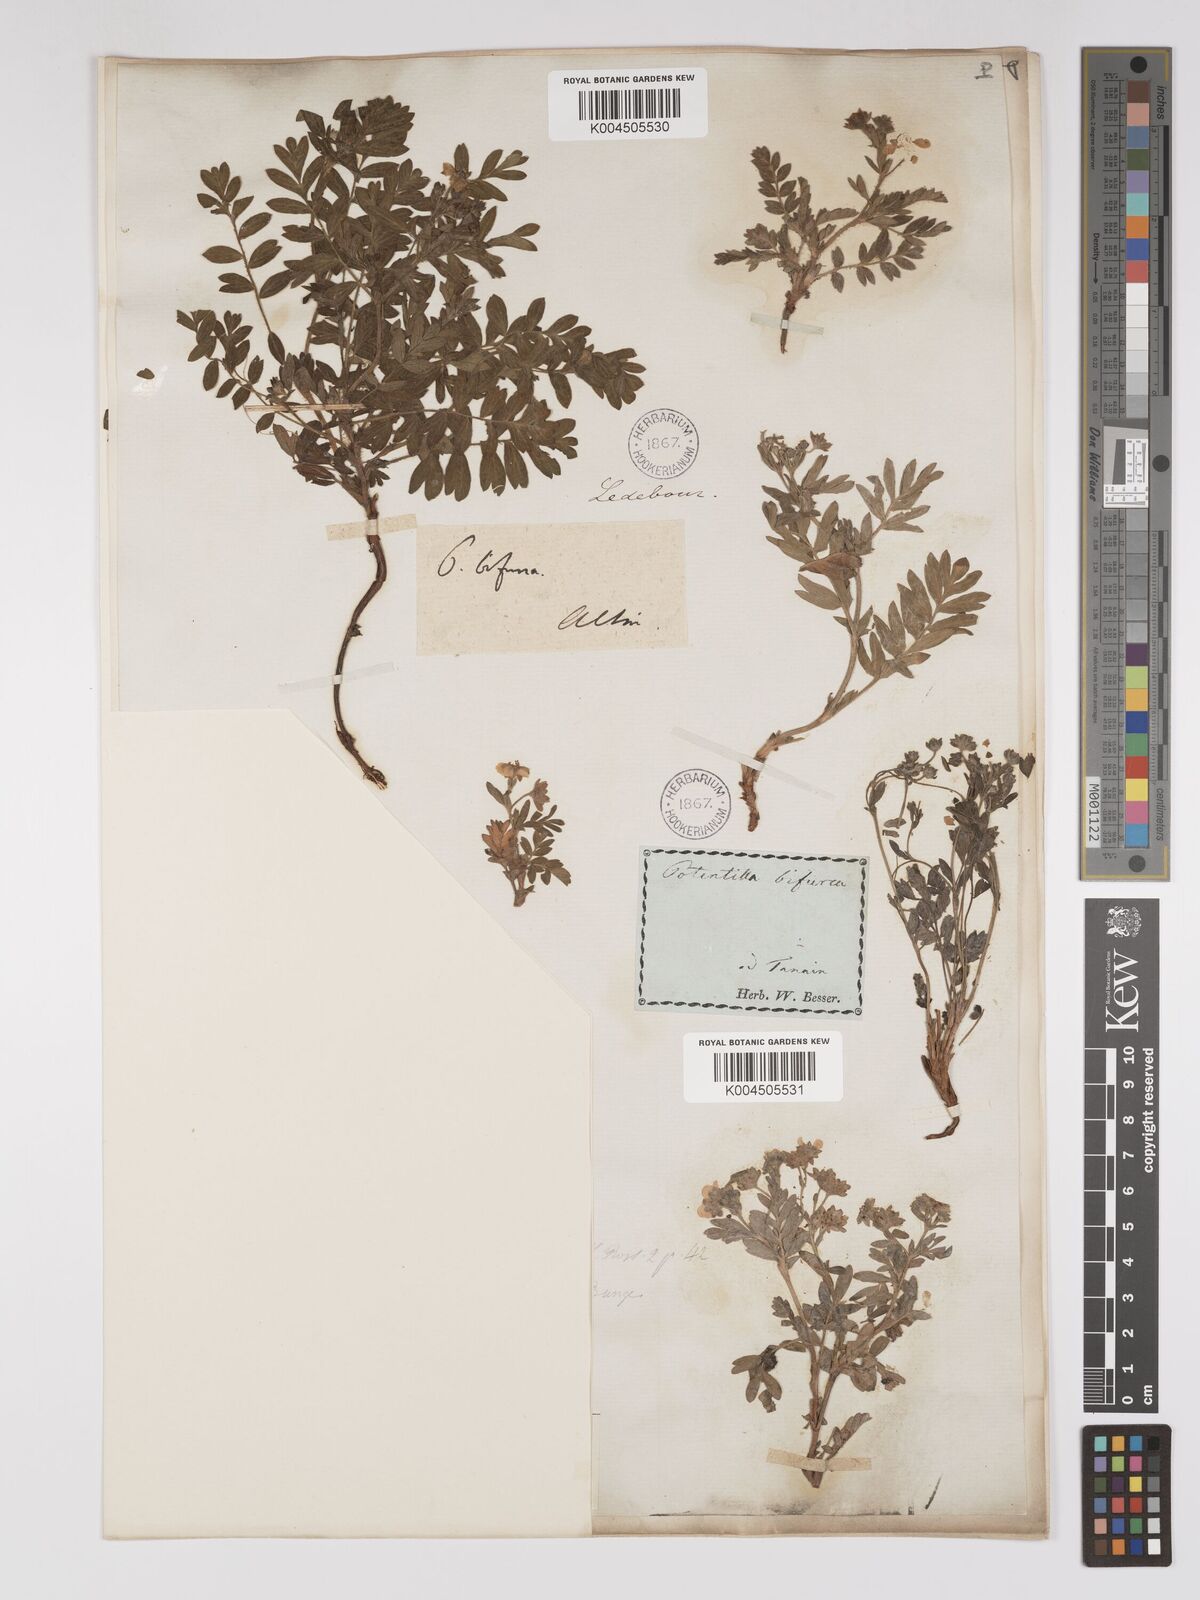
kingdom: Plantae
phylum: Tracheophyta
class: Magnoliopsida
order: Rosales
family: Rosaceae
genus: Sibbaldianthe
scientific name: Sibbaldianthe bifurca
